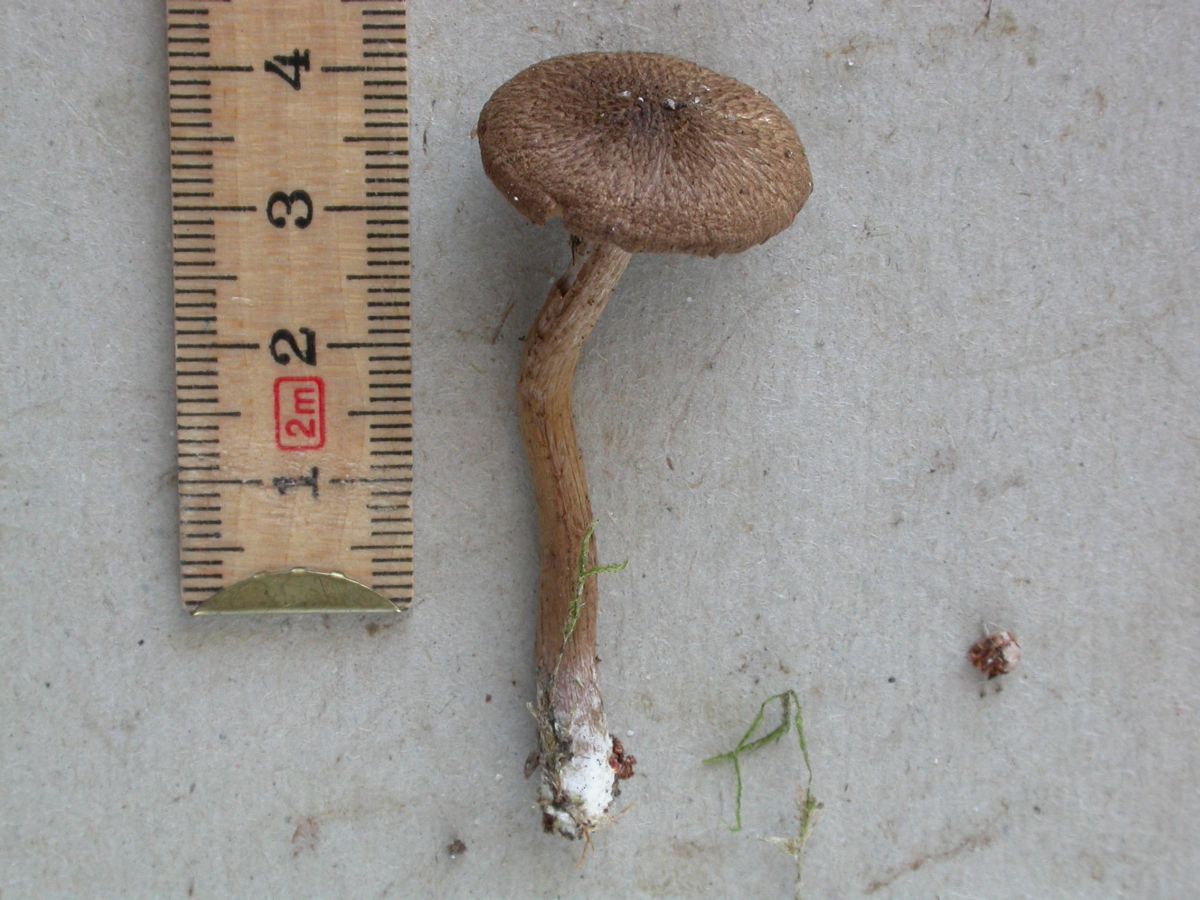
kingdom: Fungi
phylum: Basidiomycota
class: Agaricomycetes
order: Agaricales
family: Inocybaceae
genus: Inocybe
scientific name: Inocybe lanuginosa
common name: uldskællet trævlhat
